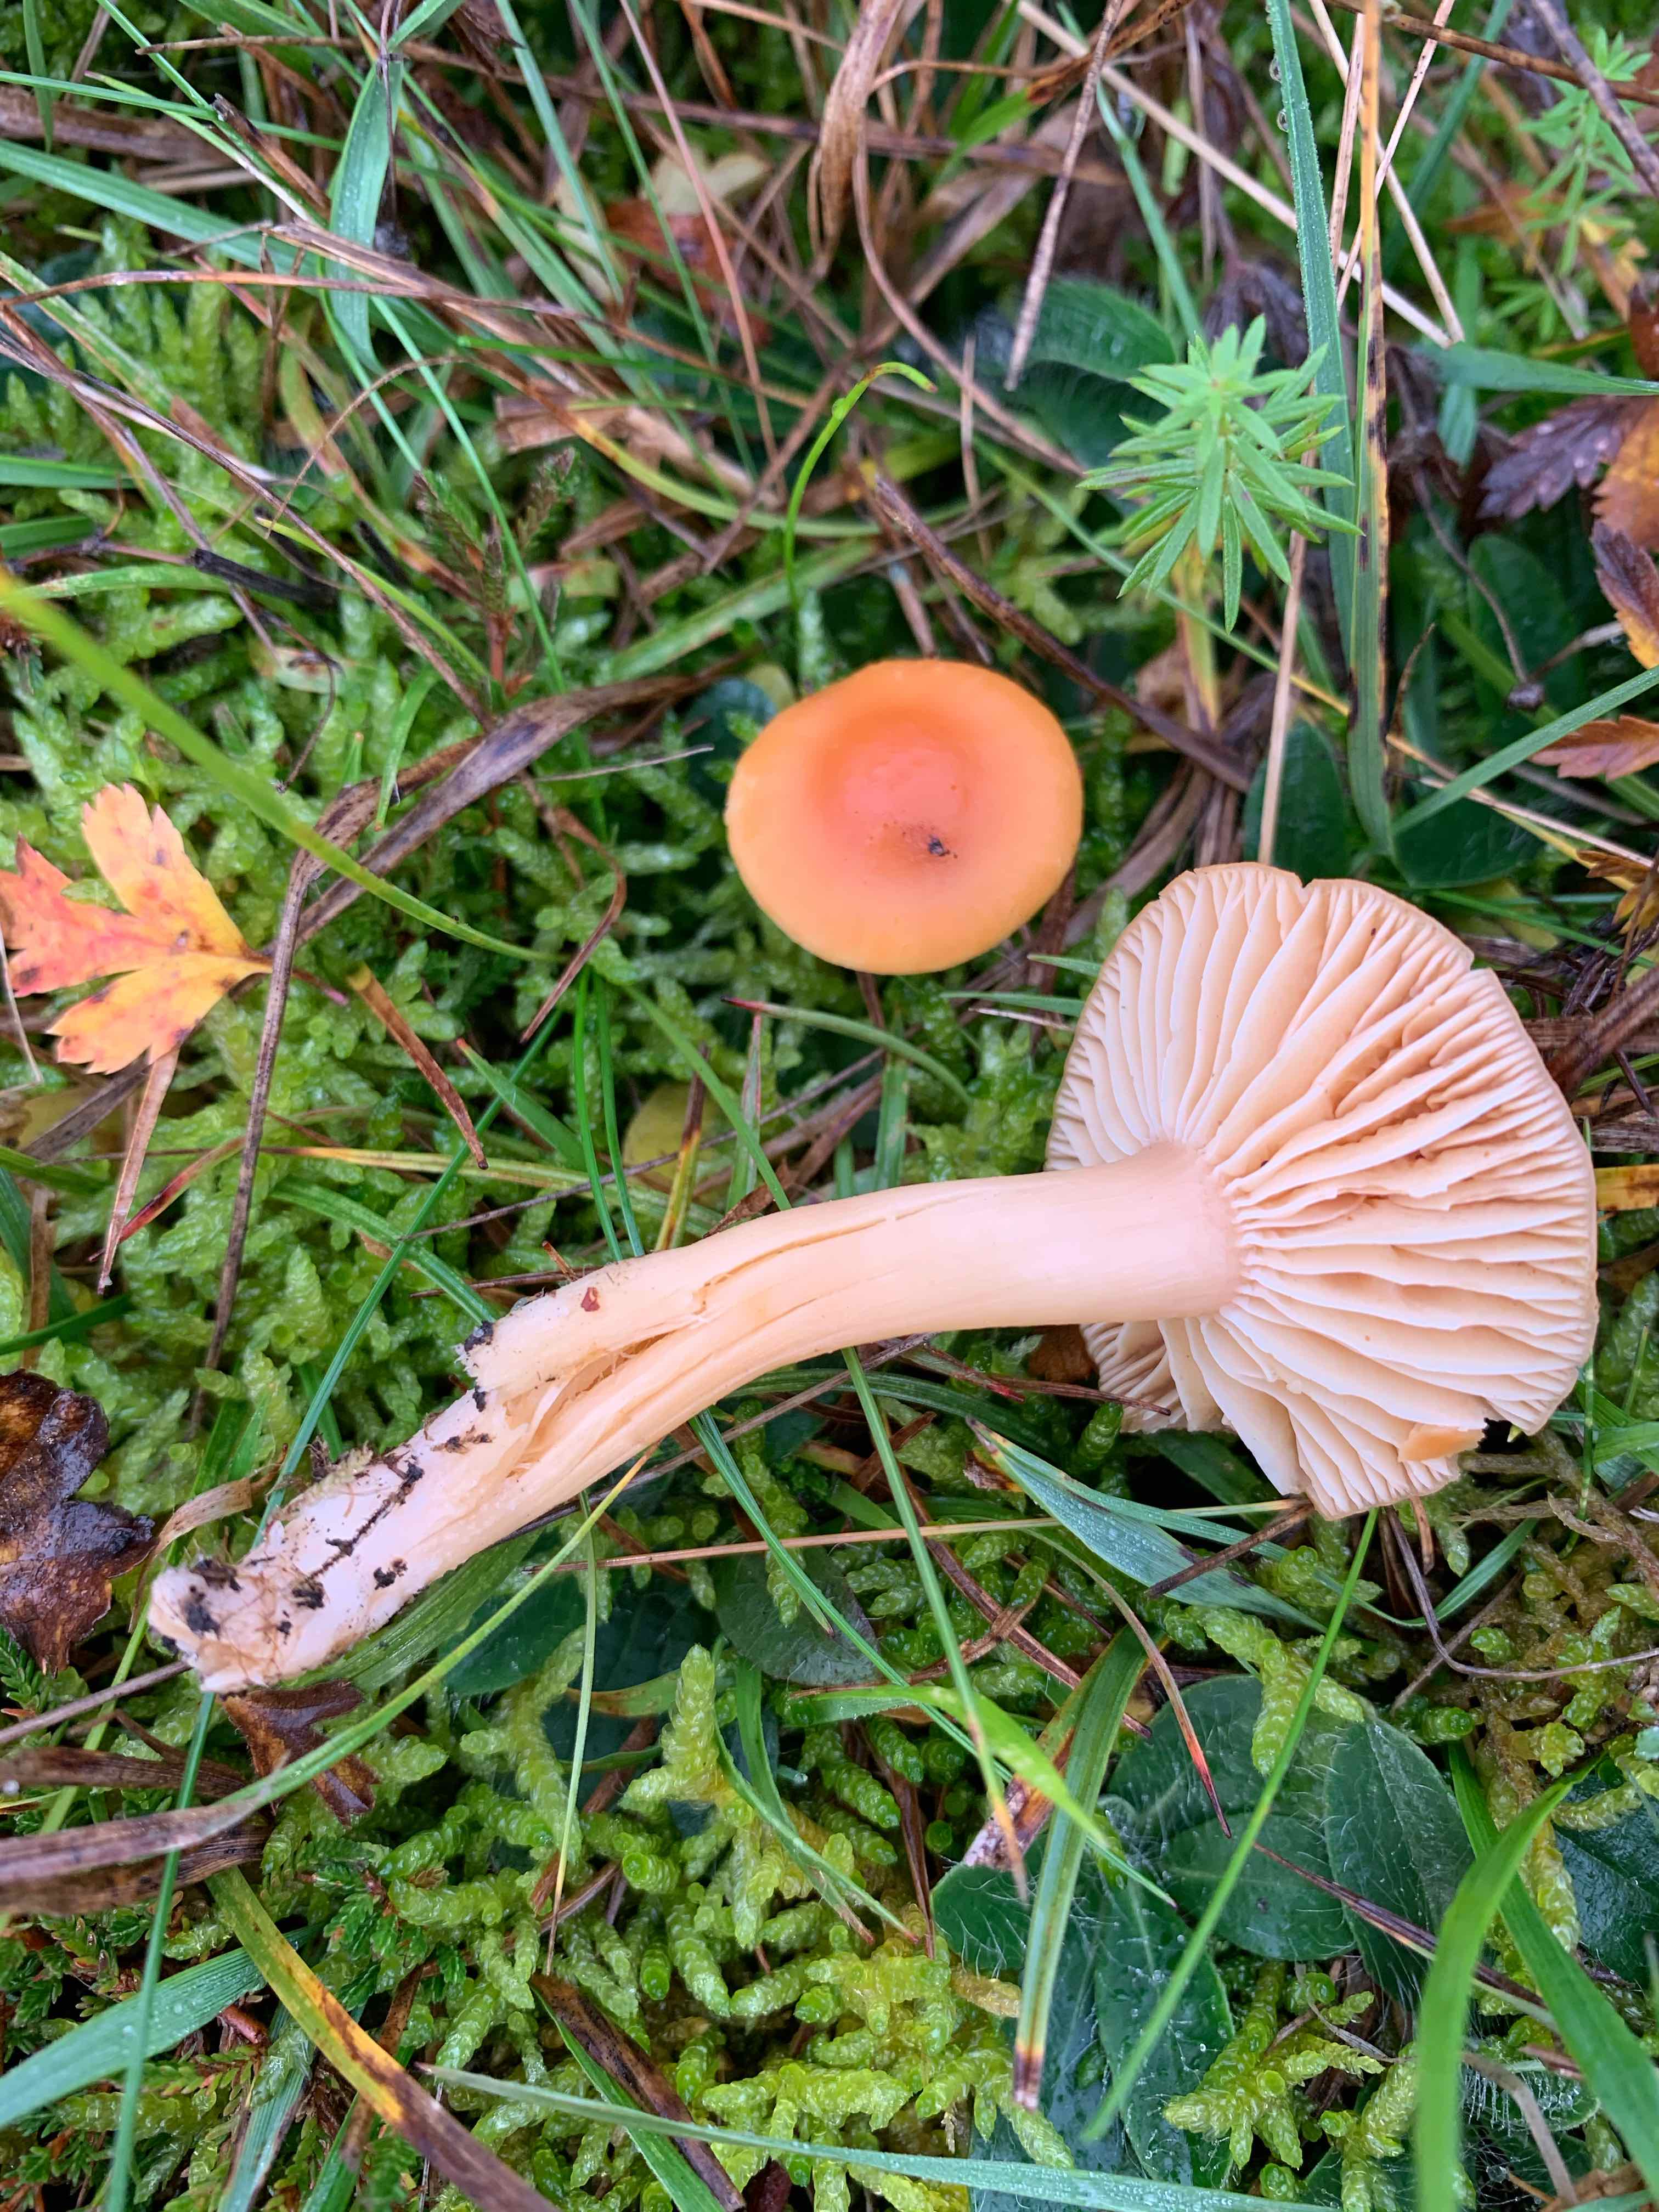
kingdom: Fungi
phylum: Basidiomycota
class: Agaricomycetes
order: Agaricales
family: Hygrophoraceae
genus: Cuphophyllus
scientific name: Cuphophyllus pratensis
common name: eng-vokshat
